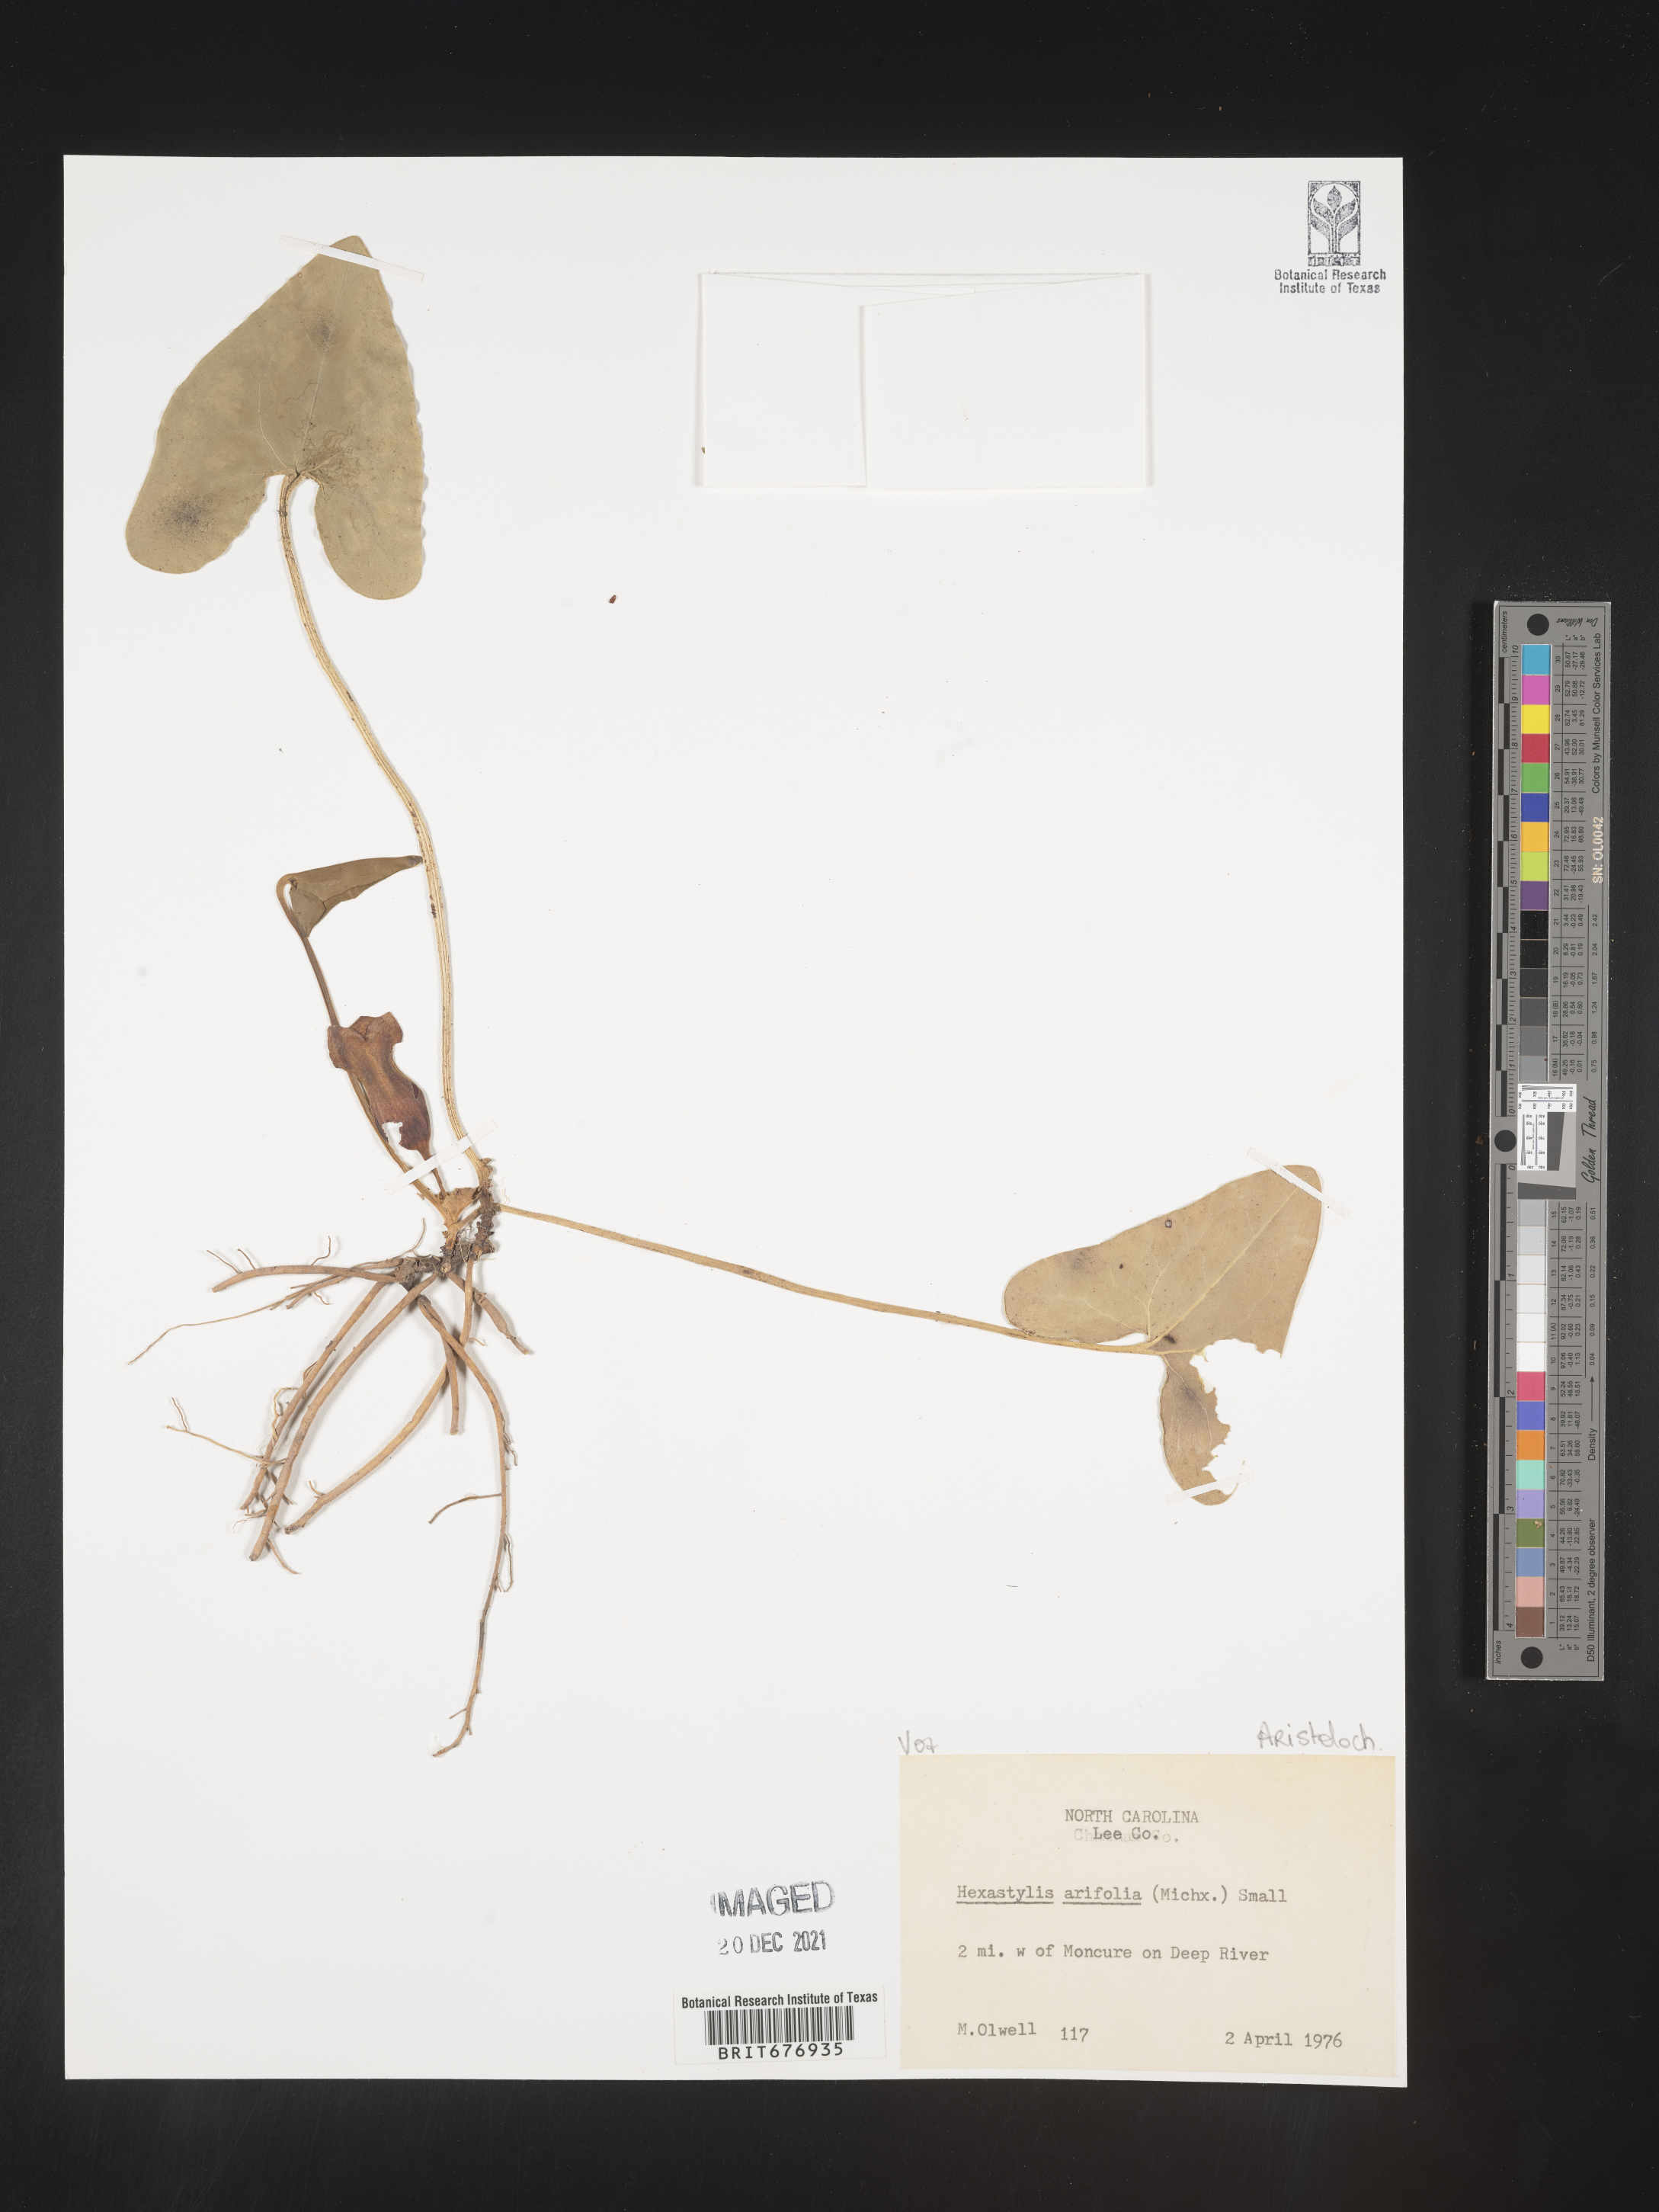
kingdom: Plantae
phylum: Tracheophyta
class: Magnoliopsida
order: Piperales
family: Aristolochiaceae
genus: Hexastylis
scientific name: Hexastylis
